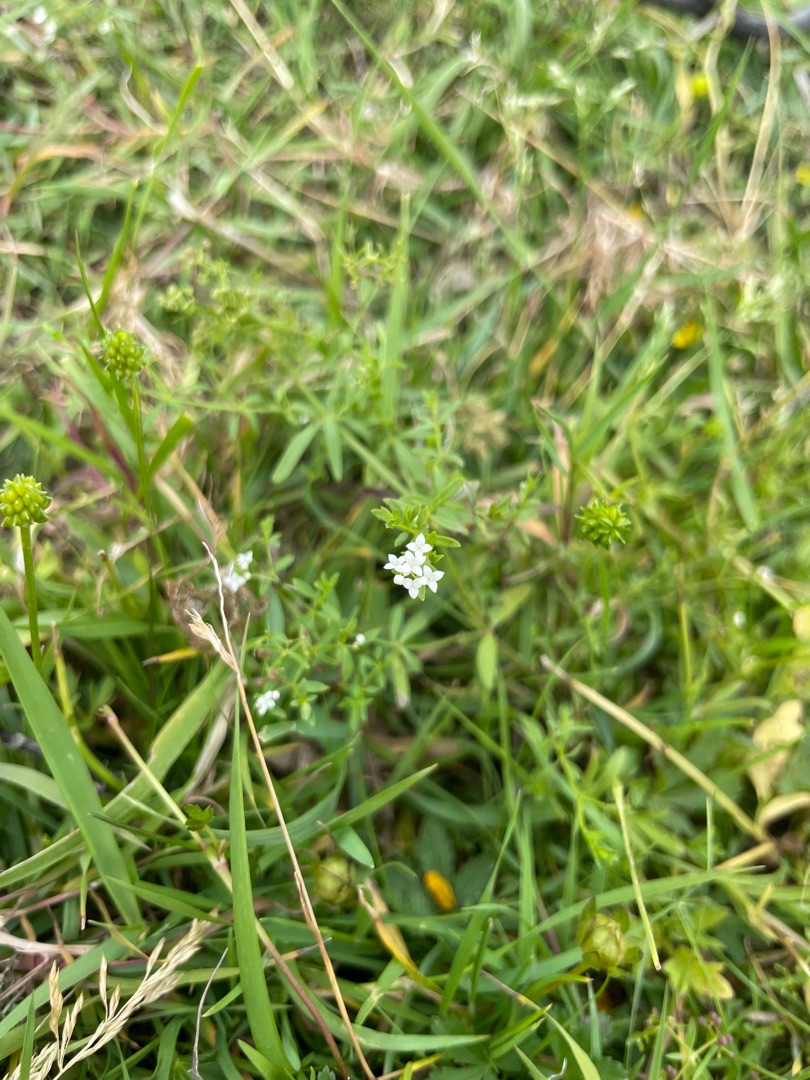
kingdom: Plantae
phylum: Tracheophyta
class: Magnoliopsida
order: Gentianales
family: Rubiaceae
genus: Galium
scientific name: Galium palustre
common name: Kær-snerre
